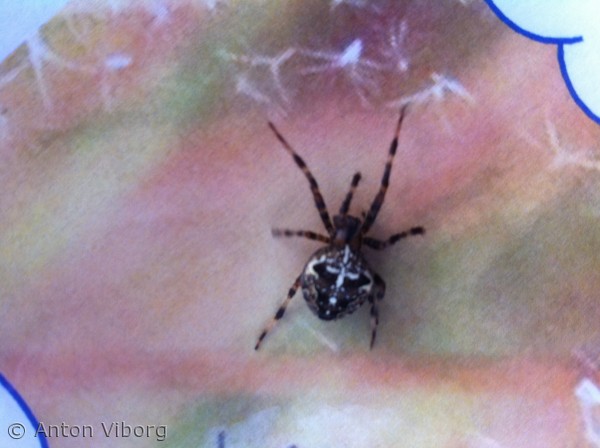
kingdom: Animalia
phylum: Arthropoda
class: Arachnida
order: Araneae
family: Araneidae
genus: Araneus
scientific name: Araneus diadematus
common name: Korsedderkop
